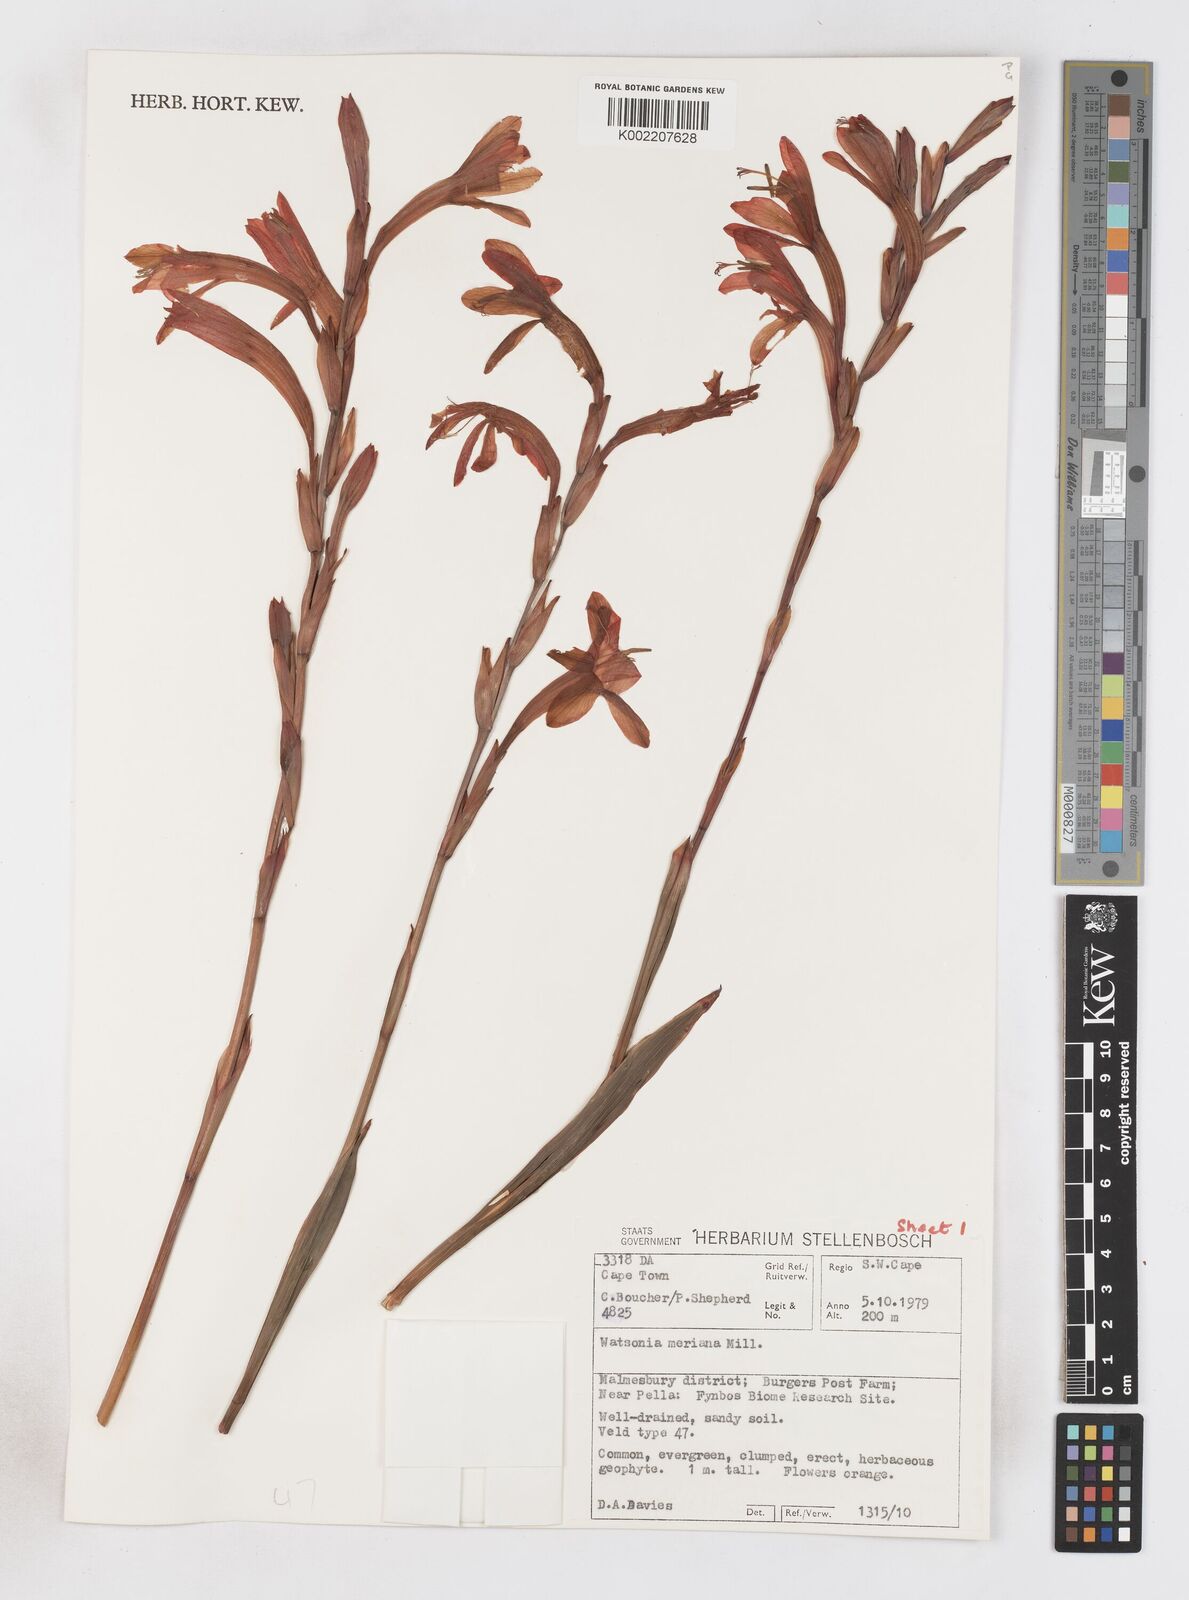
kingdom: Plantae
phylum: Tracheophyta
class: Liliopsida
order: Asparagales
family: Iridaceae
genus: Watsonia
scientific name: Watsonia meriana
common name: Bulbil bugle-lily
